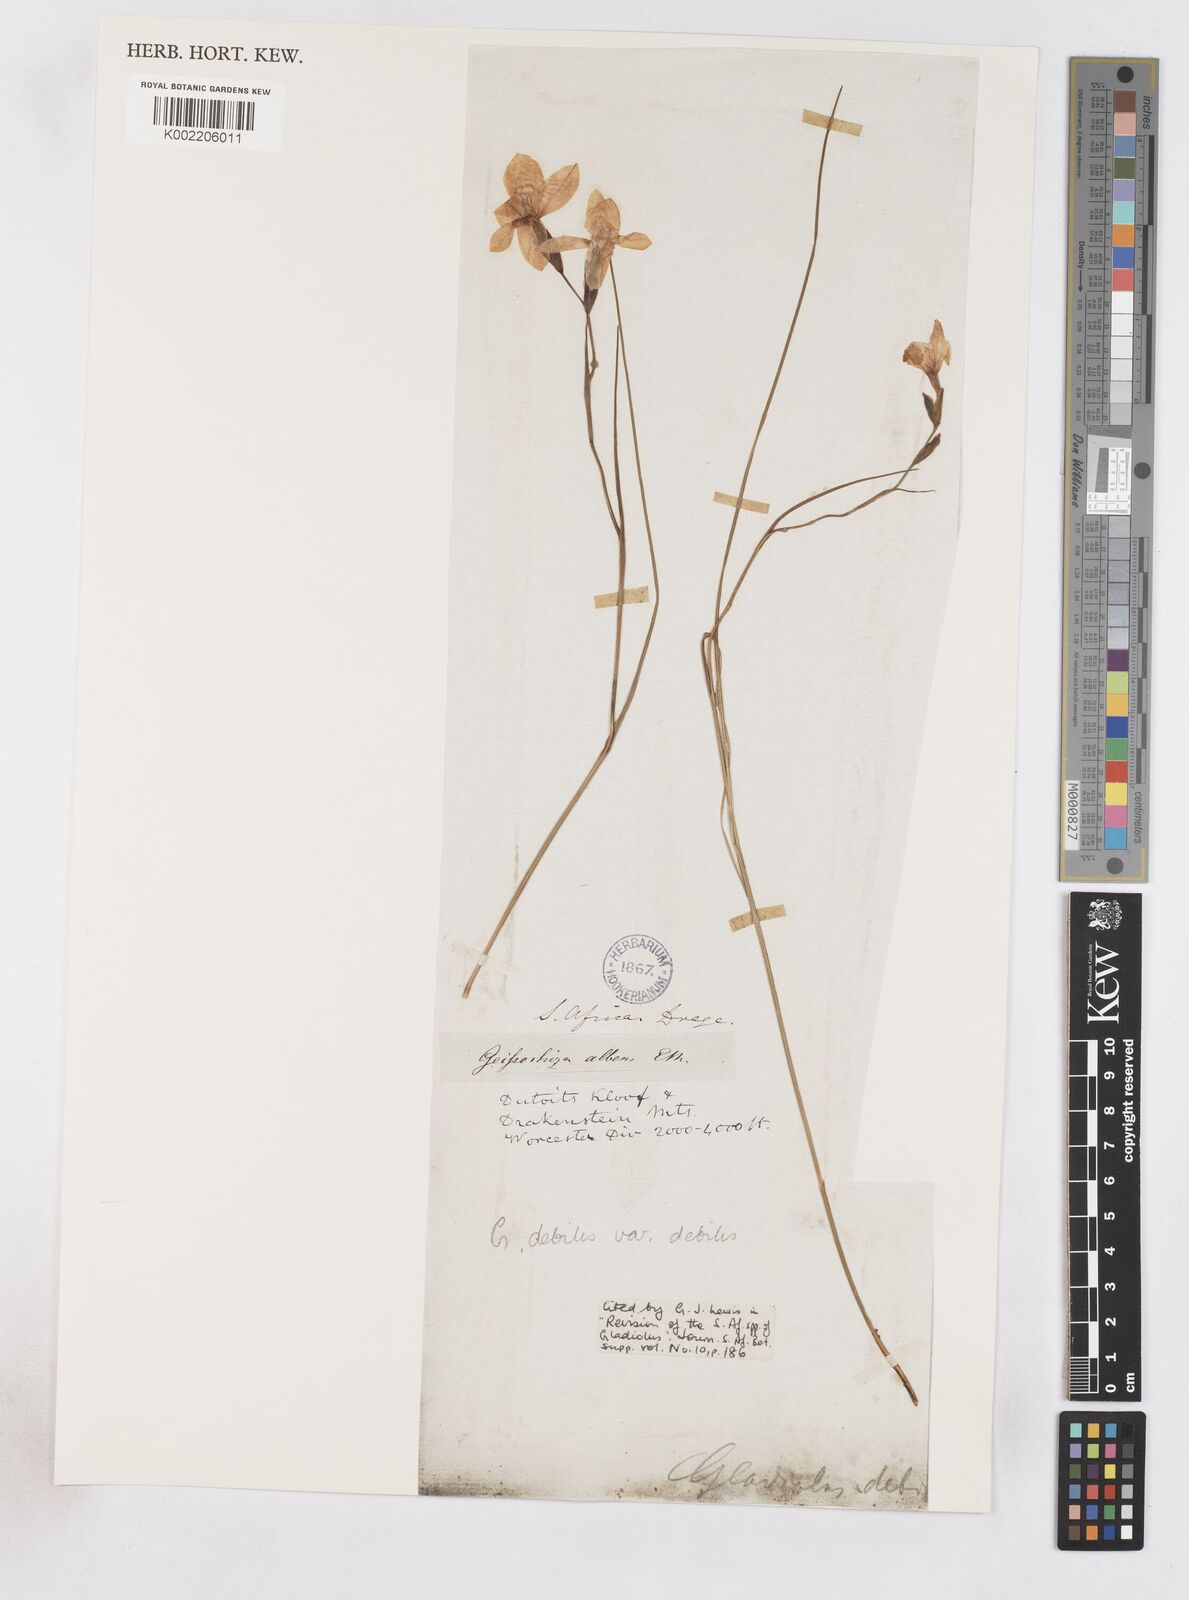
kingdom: Plantae
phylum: Tracheophyta
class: Liliopsida
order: Asparagales
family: Iridaceae
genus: Gladiolus
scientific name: Gladiolus debilis
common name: Painted-lady
